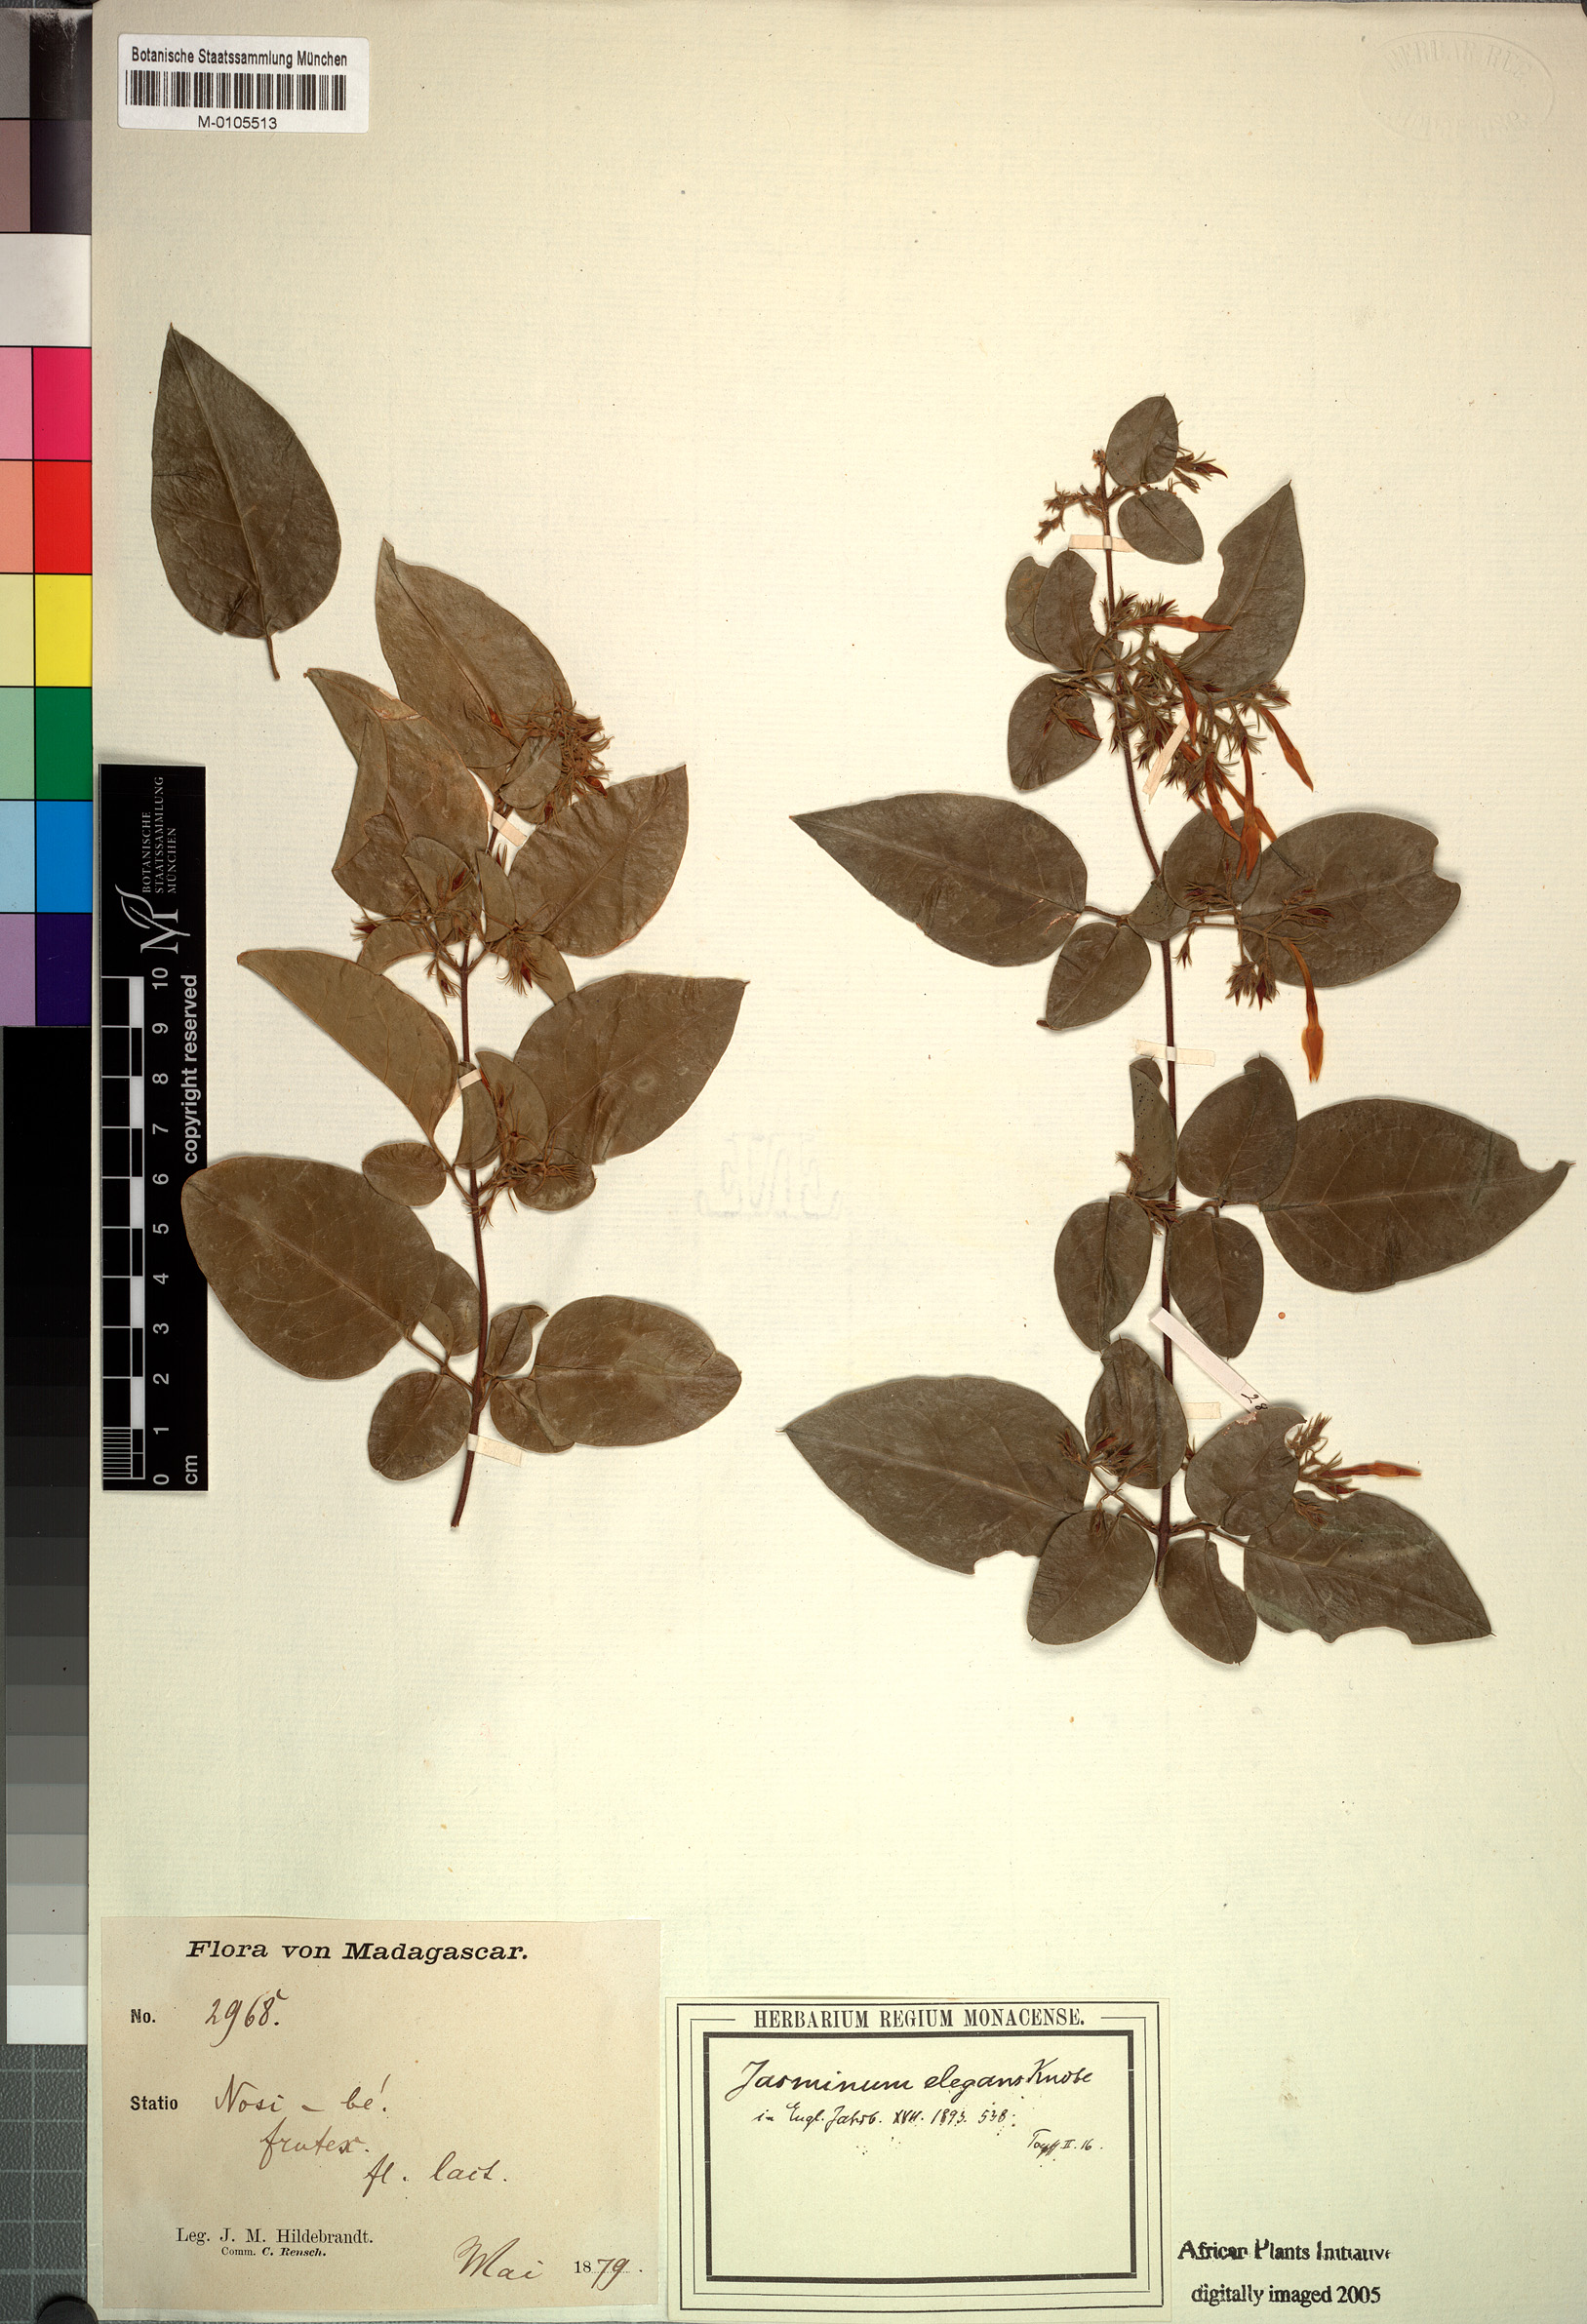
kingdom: Plantae
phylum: Tracheophyta
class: Magnoliopsida
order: Lamiales
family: Oleaceae
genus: Jasminum
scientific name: Jasminum elegans
